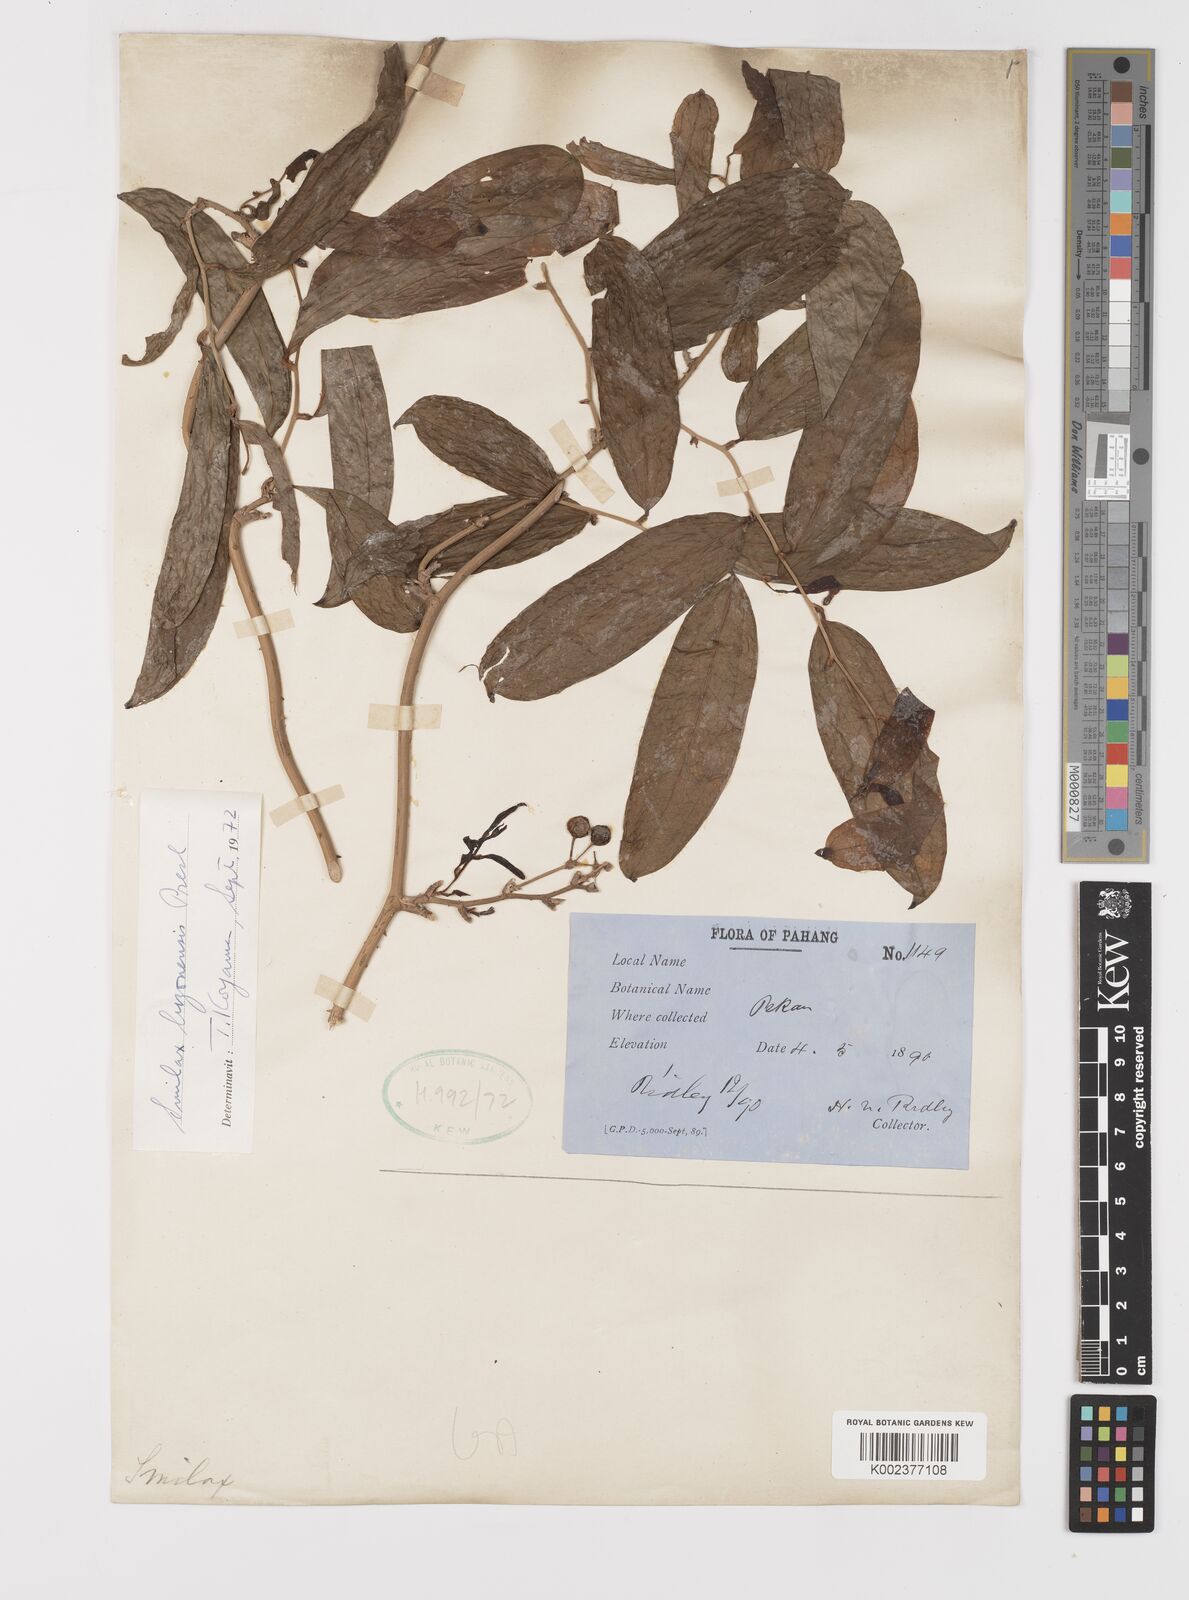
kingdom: Plantae
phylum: Tracheophyta
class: Liliopsida
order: Liliales
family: Smilacaceae
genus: Smilax
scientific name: Smilax luzonensis
